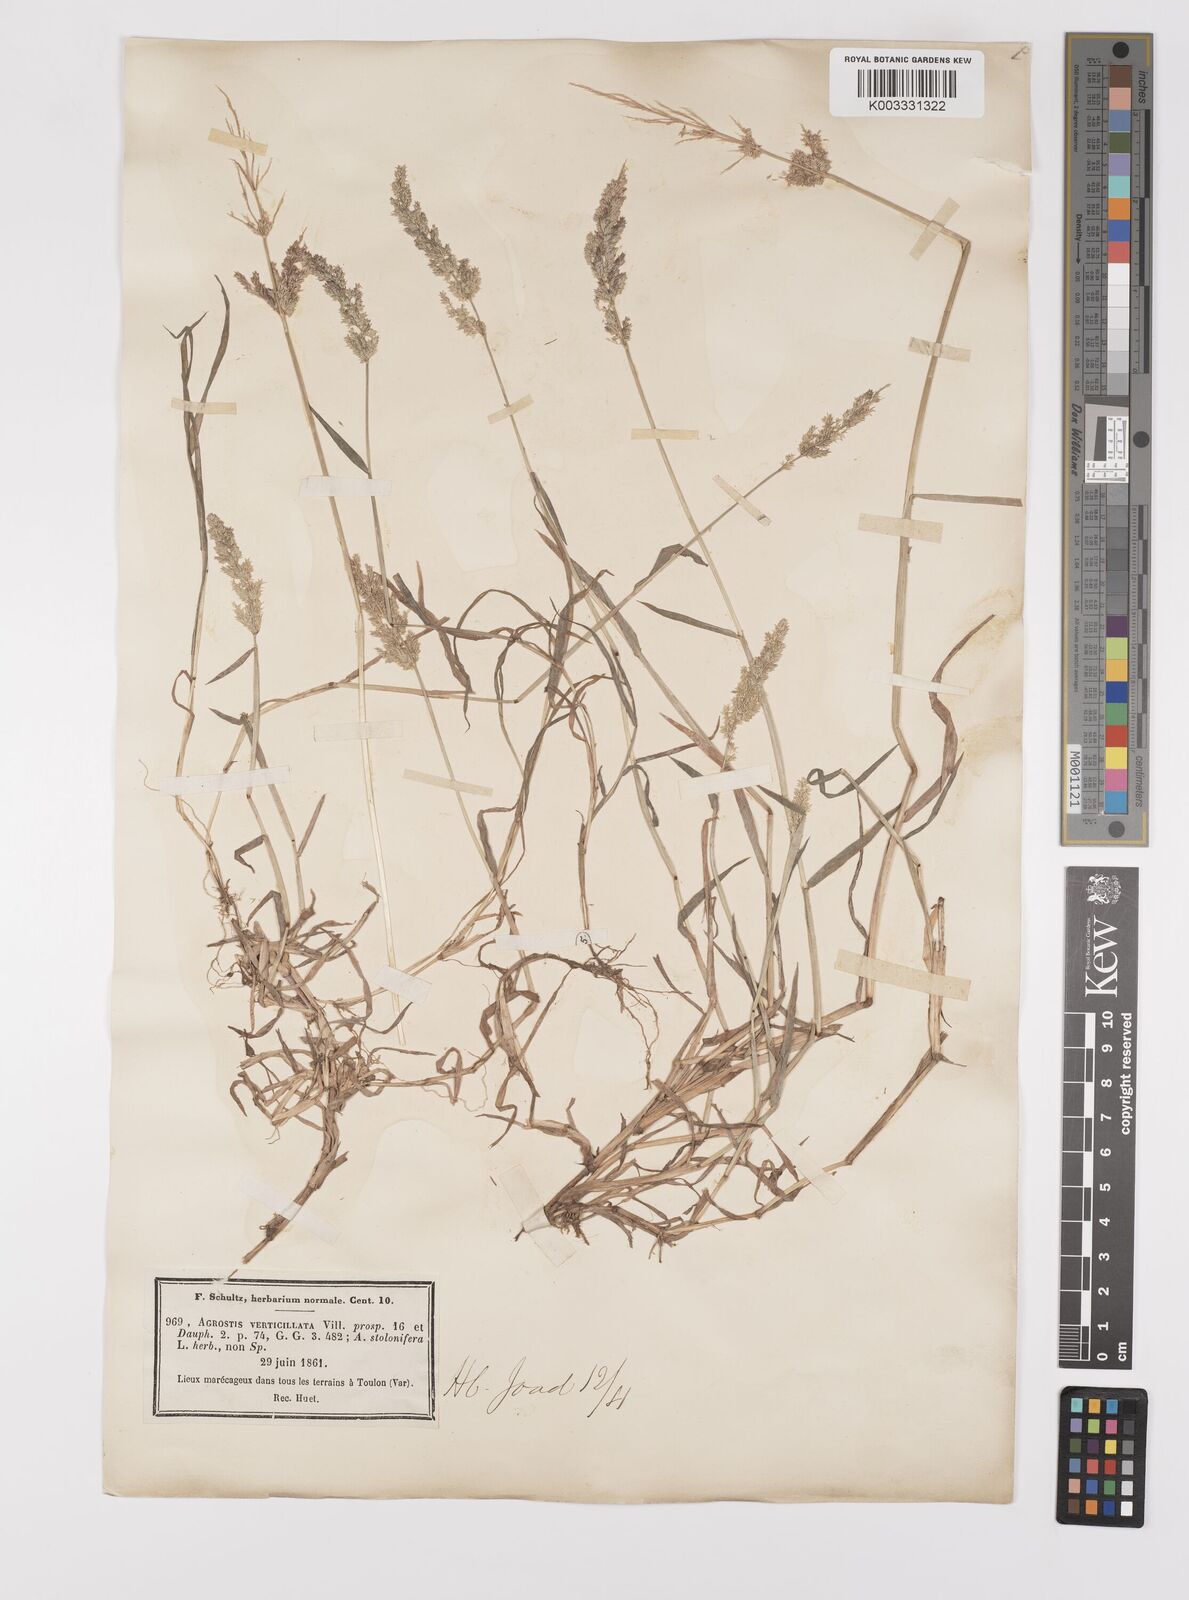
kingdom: Plantae
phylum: Tracheophyta
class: Liliopsida
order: Poales
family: Poaceae
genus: Polypogon
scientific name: Polypogon viridis
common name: Water bent
